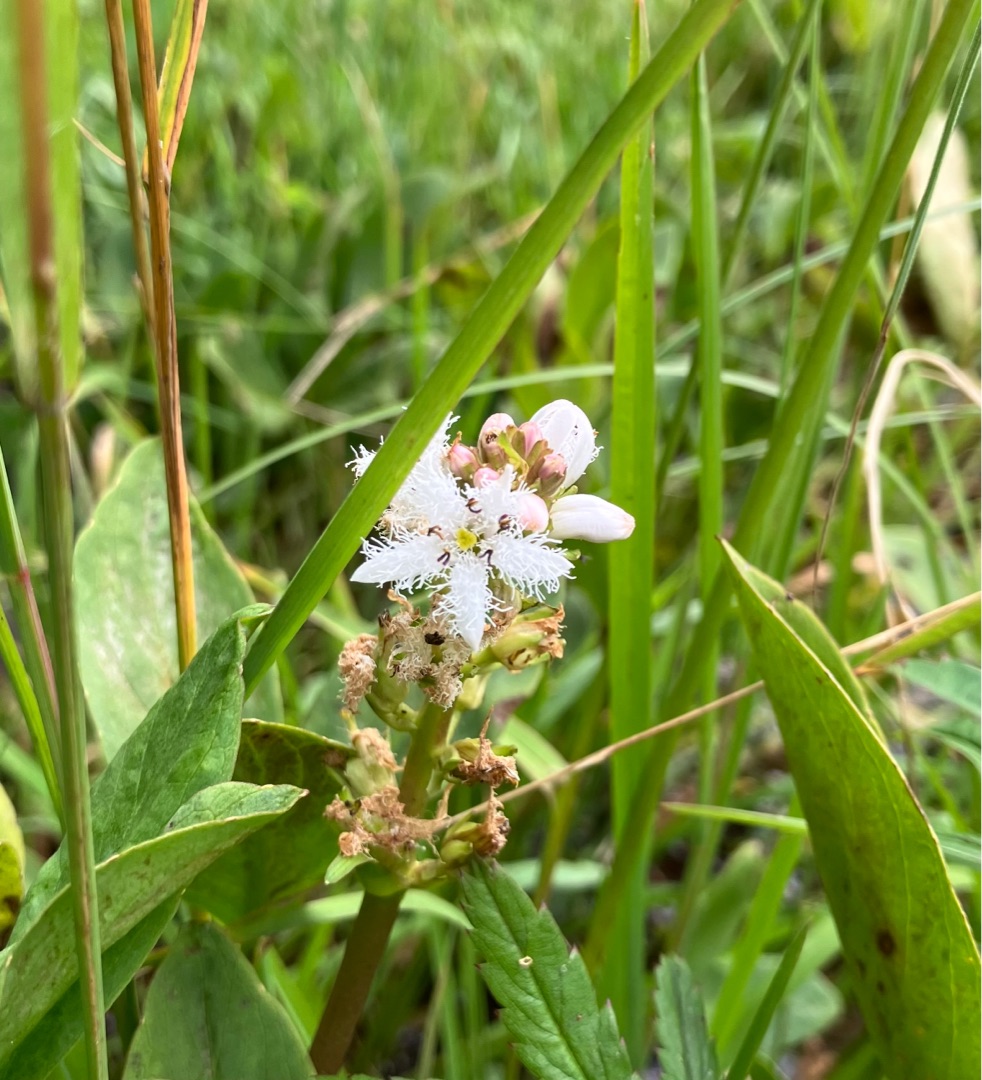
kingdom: Plantae
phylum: Tracheophyta
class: Magnoliopsida
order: Asterales
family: Menyanthaceae
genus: Menyanthes
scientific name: Menyanthes trifoliata
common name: Bukkeblad
